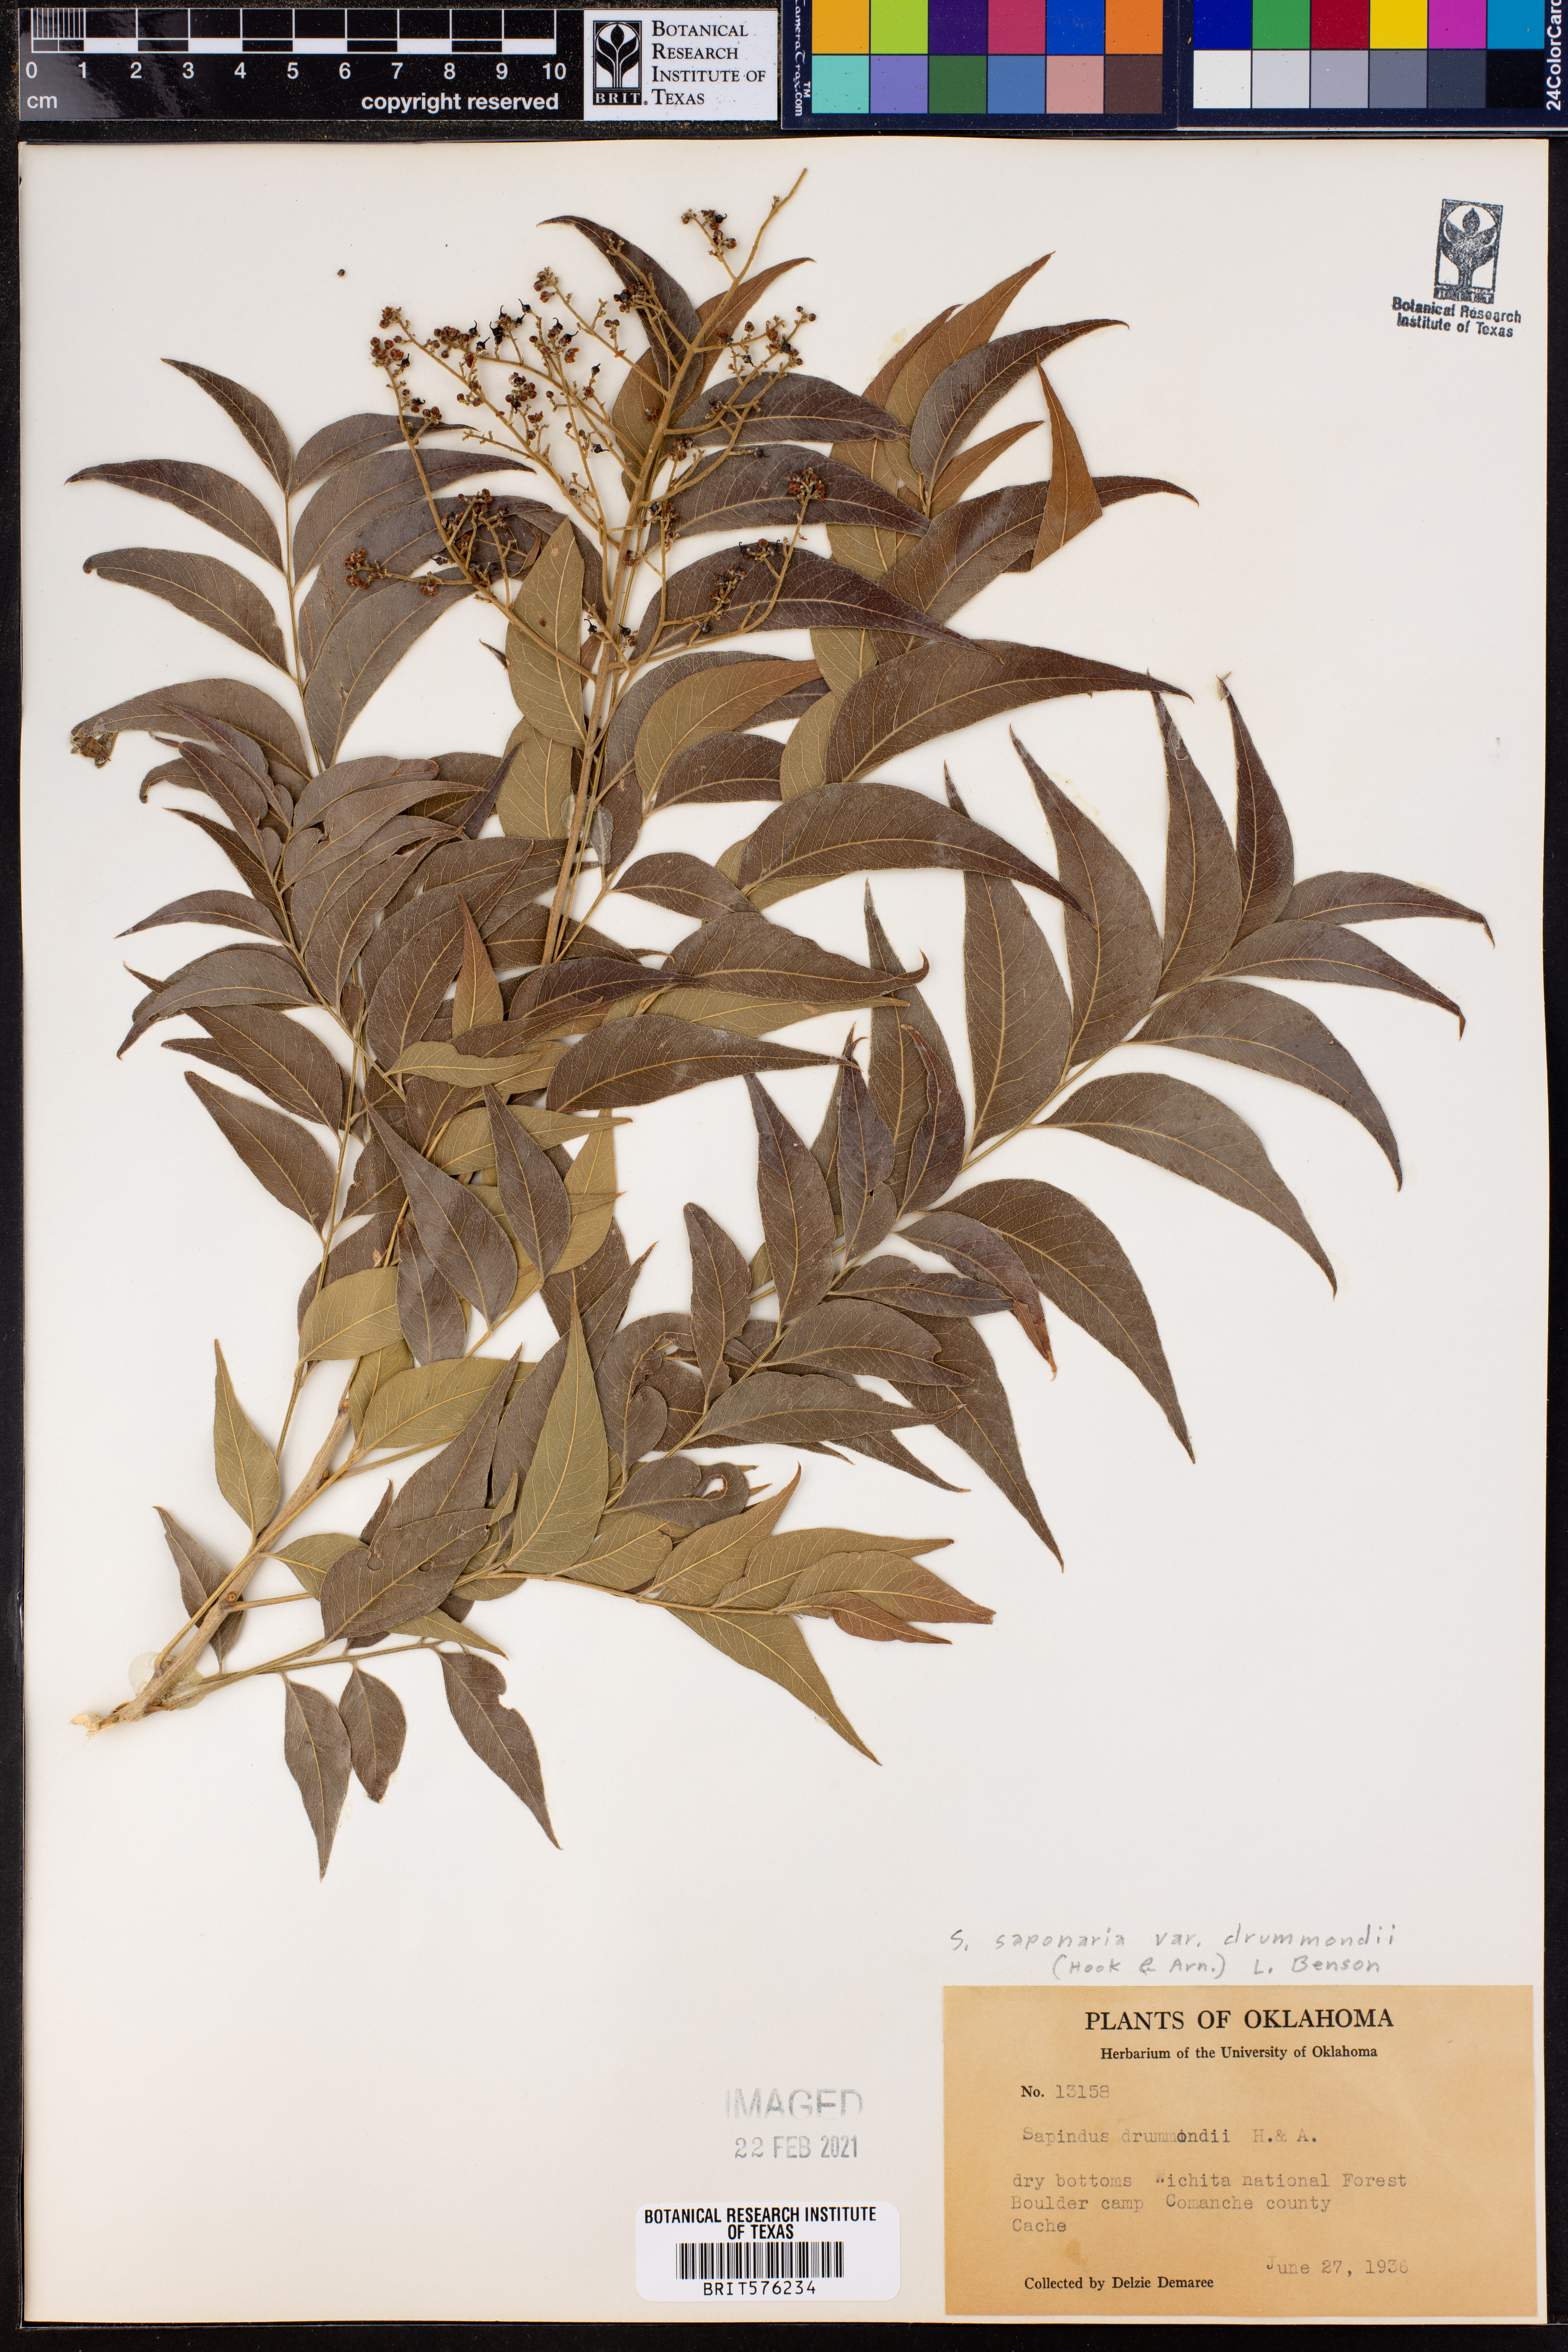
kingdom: Plantae
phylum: Tracheophyta
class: Magnoliopsida
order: Sapindales
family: Sapindaceae
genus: Sapindus
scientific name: Sapindus drummondii
